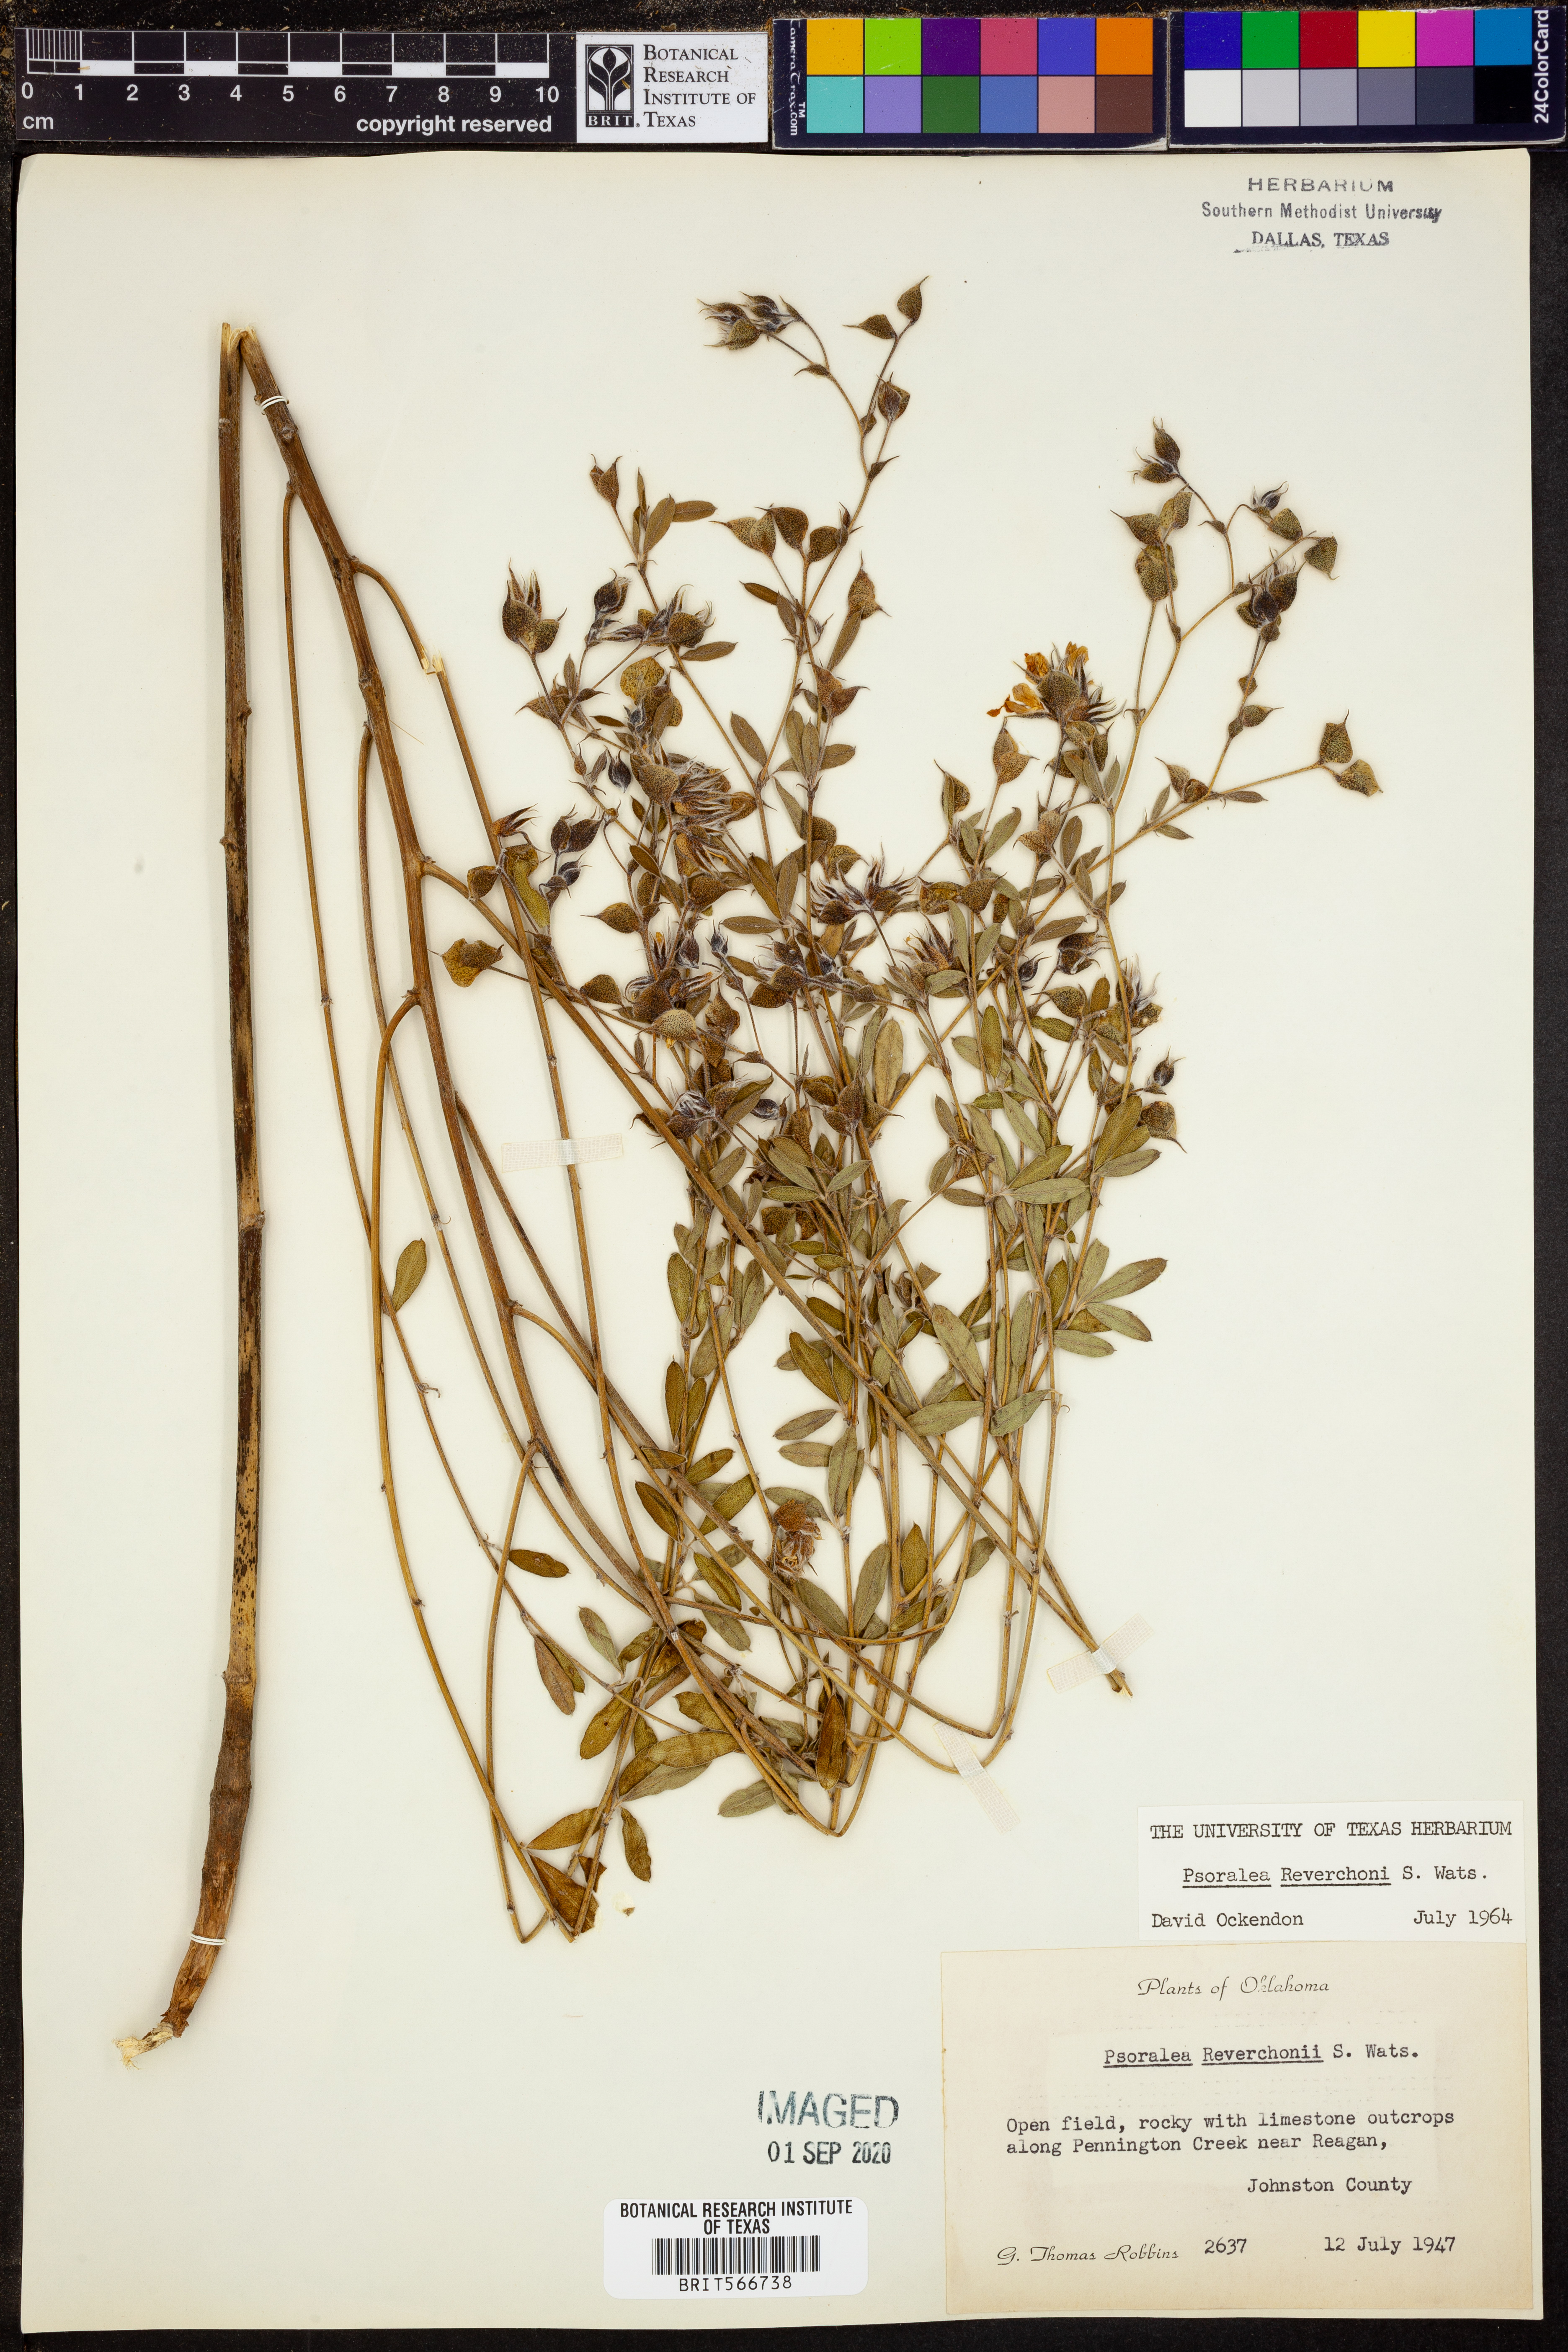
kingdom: Plantae
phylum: Tracheophyta
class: Magnoliopsida
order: Fabales
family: Fabaceae
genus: Pediomelum
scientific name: Pediomelum reverchonii
